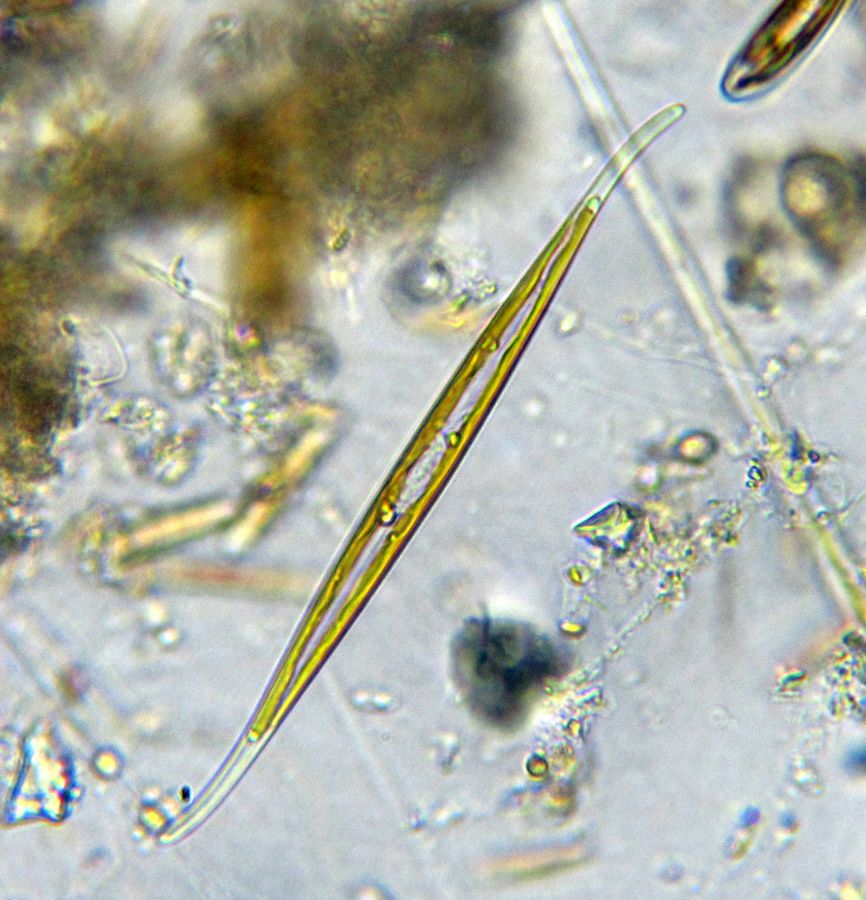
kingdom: Chromista
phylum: Ochrophyta
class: Bacillariophyceae
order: Bacillariales
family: Bacillariaceae
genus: Cylindrotheca
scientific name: Cylindrotheca Ceratoneis fasciola
